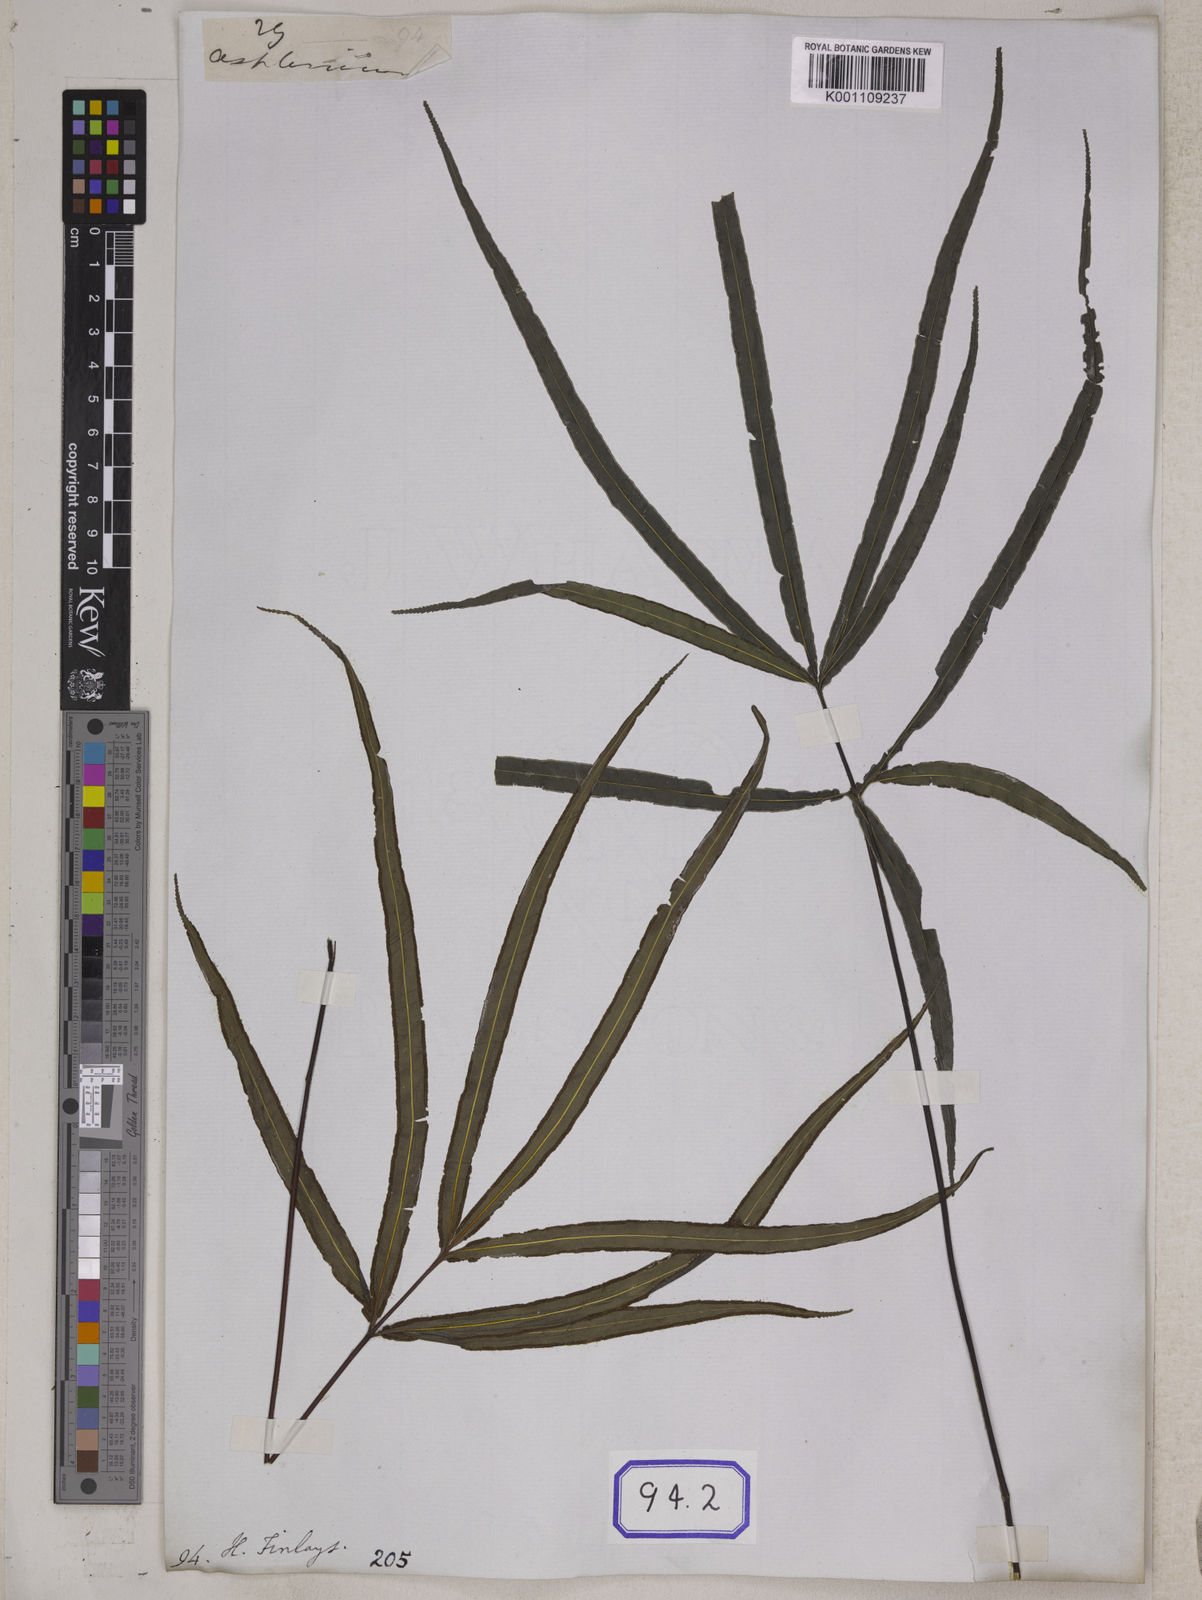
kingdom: Plantae
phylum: Tracheophyta
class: Polypodiopsida
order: Polypodiales
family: Pteridaceae
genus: Pteris
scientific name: Pteris scabripes
